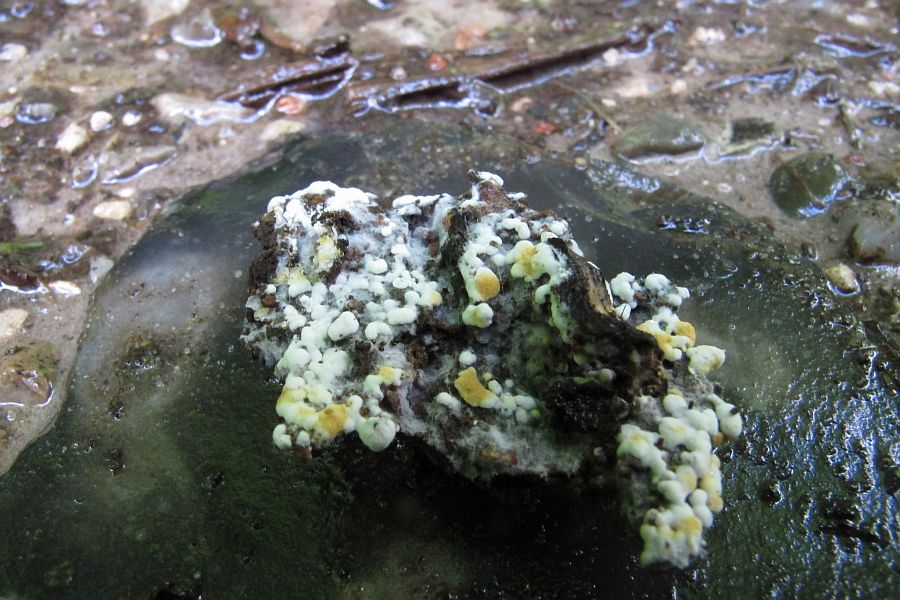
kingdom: Fungi
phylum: Basidiomycota
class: Agaricomycetes
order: Cantharellales
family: Botryobasidiaceae
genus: Botryobasidium
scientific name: Botryobasidium aureum
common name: gylden spindhinde
